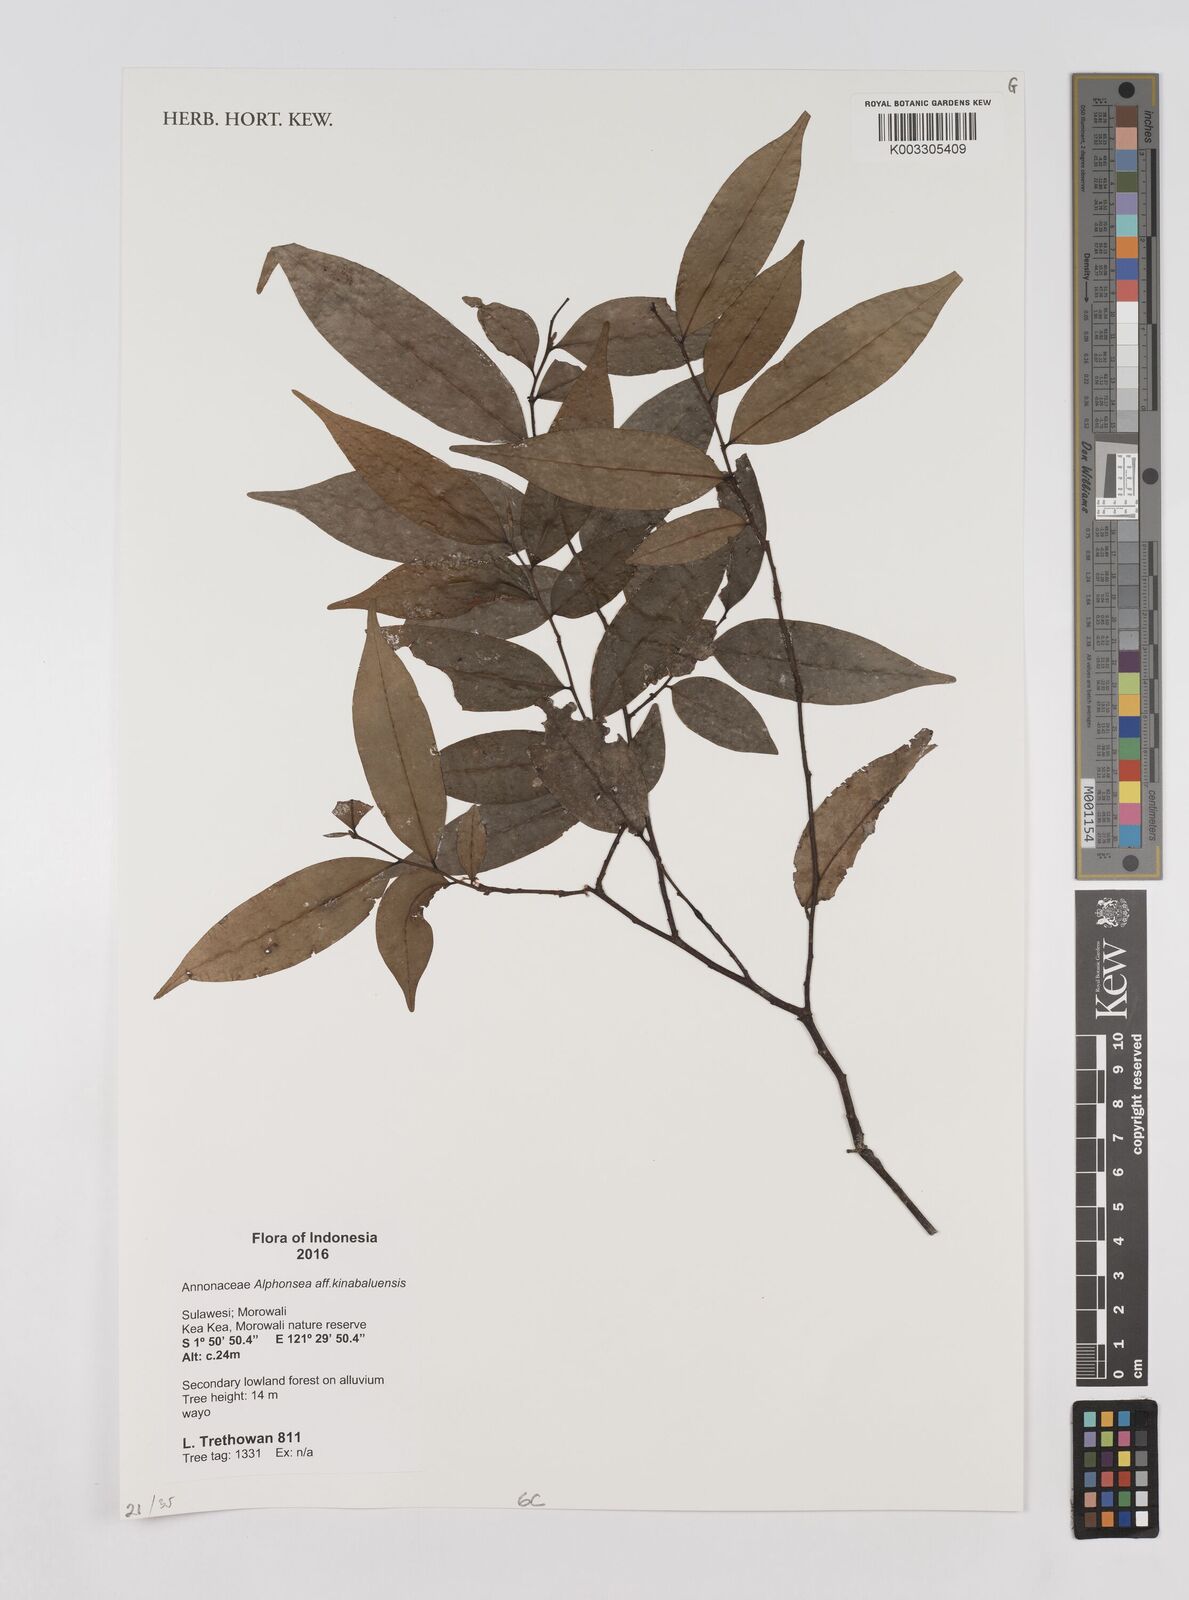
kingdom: Plantae
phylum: Tracheophyta
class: Magnoliopsida
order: Magnoliales
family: Annonaceae
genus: Alphonsea
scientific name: Alphonsea kinabaluensis
